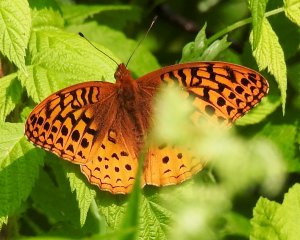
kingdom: Animalia
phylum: Arthropoda
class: Insecta
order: Lepidoptera
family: Nymphalidae
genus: Speyeria
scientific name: Speyeria cybele
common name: Great Spangled Fritillary
